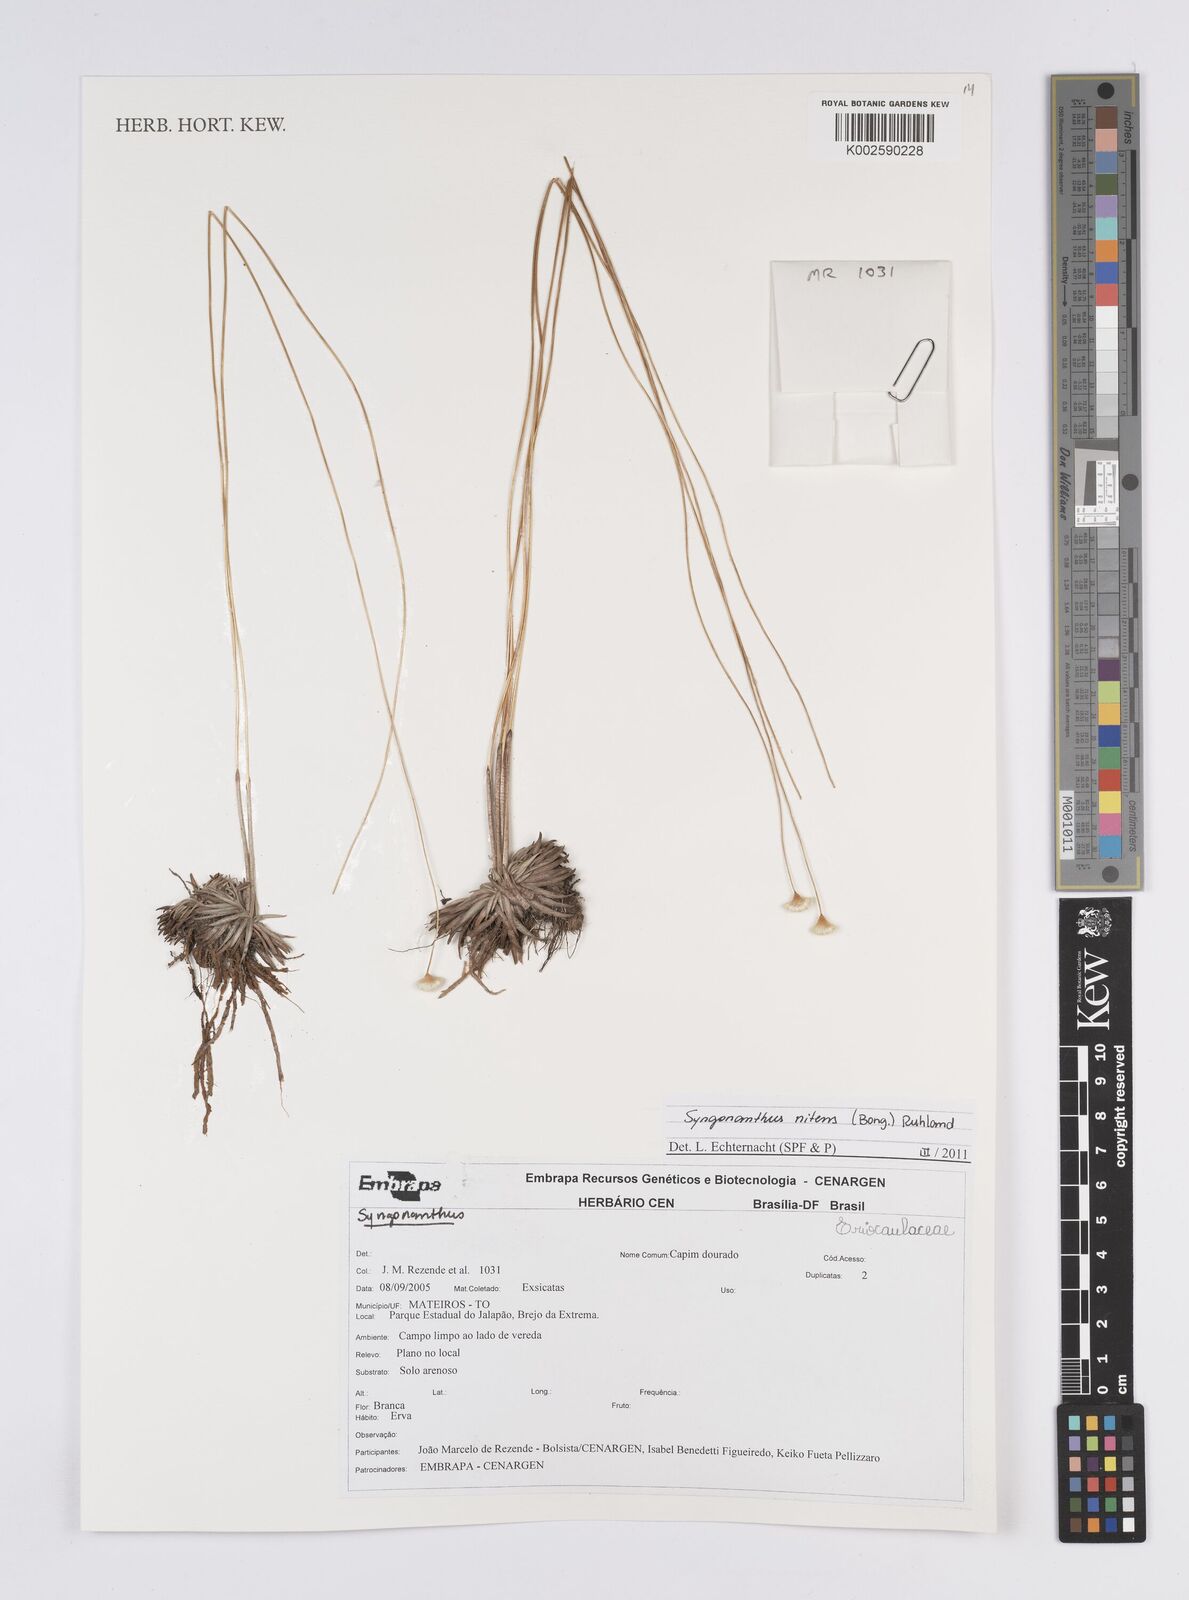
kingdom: Plantae
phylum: Tracheophyta
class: Liliopsida
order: Poales
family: Eriocaulaceae
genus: Syngonanthus
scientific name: Syngonanthus nitens
